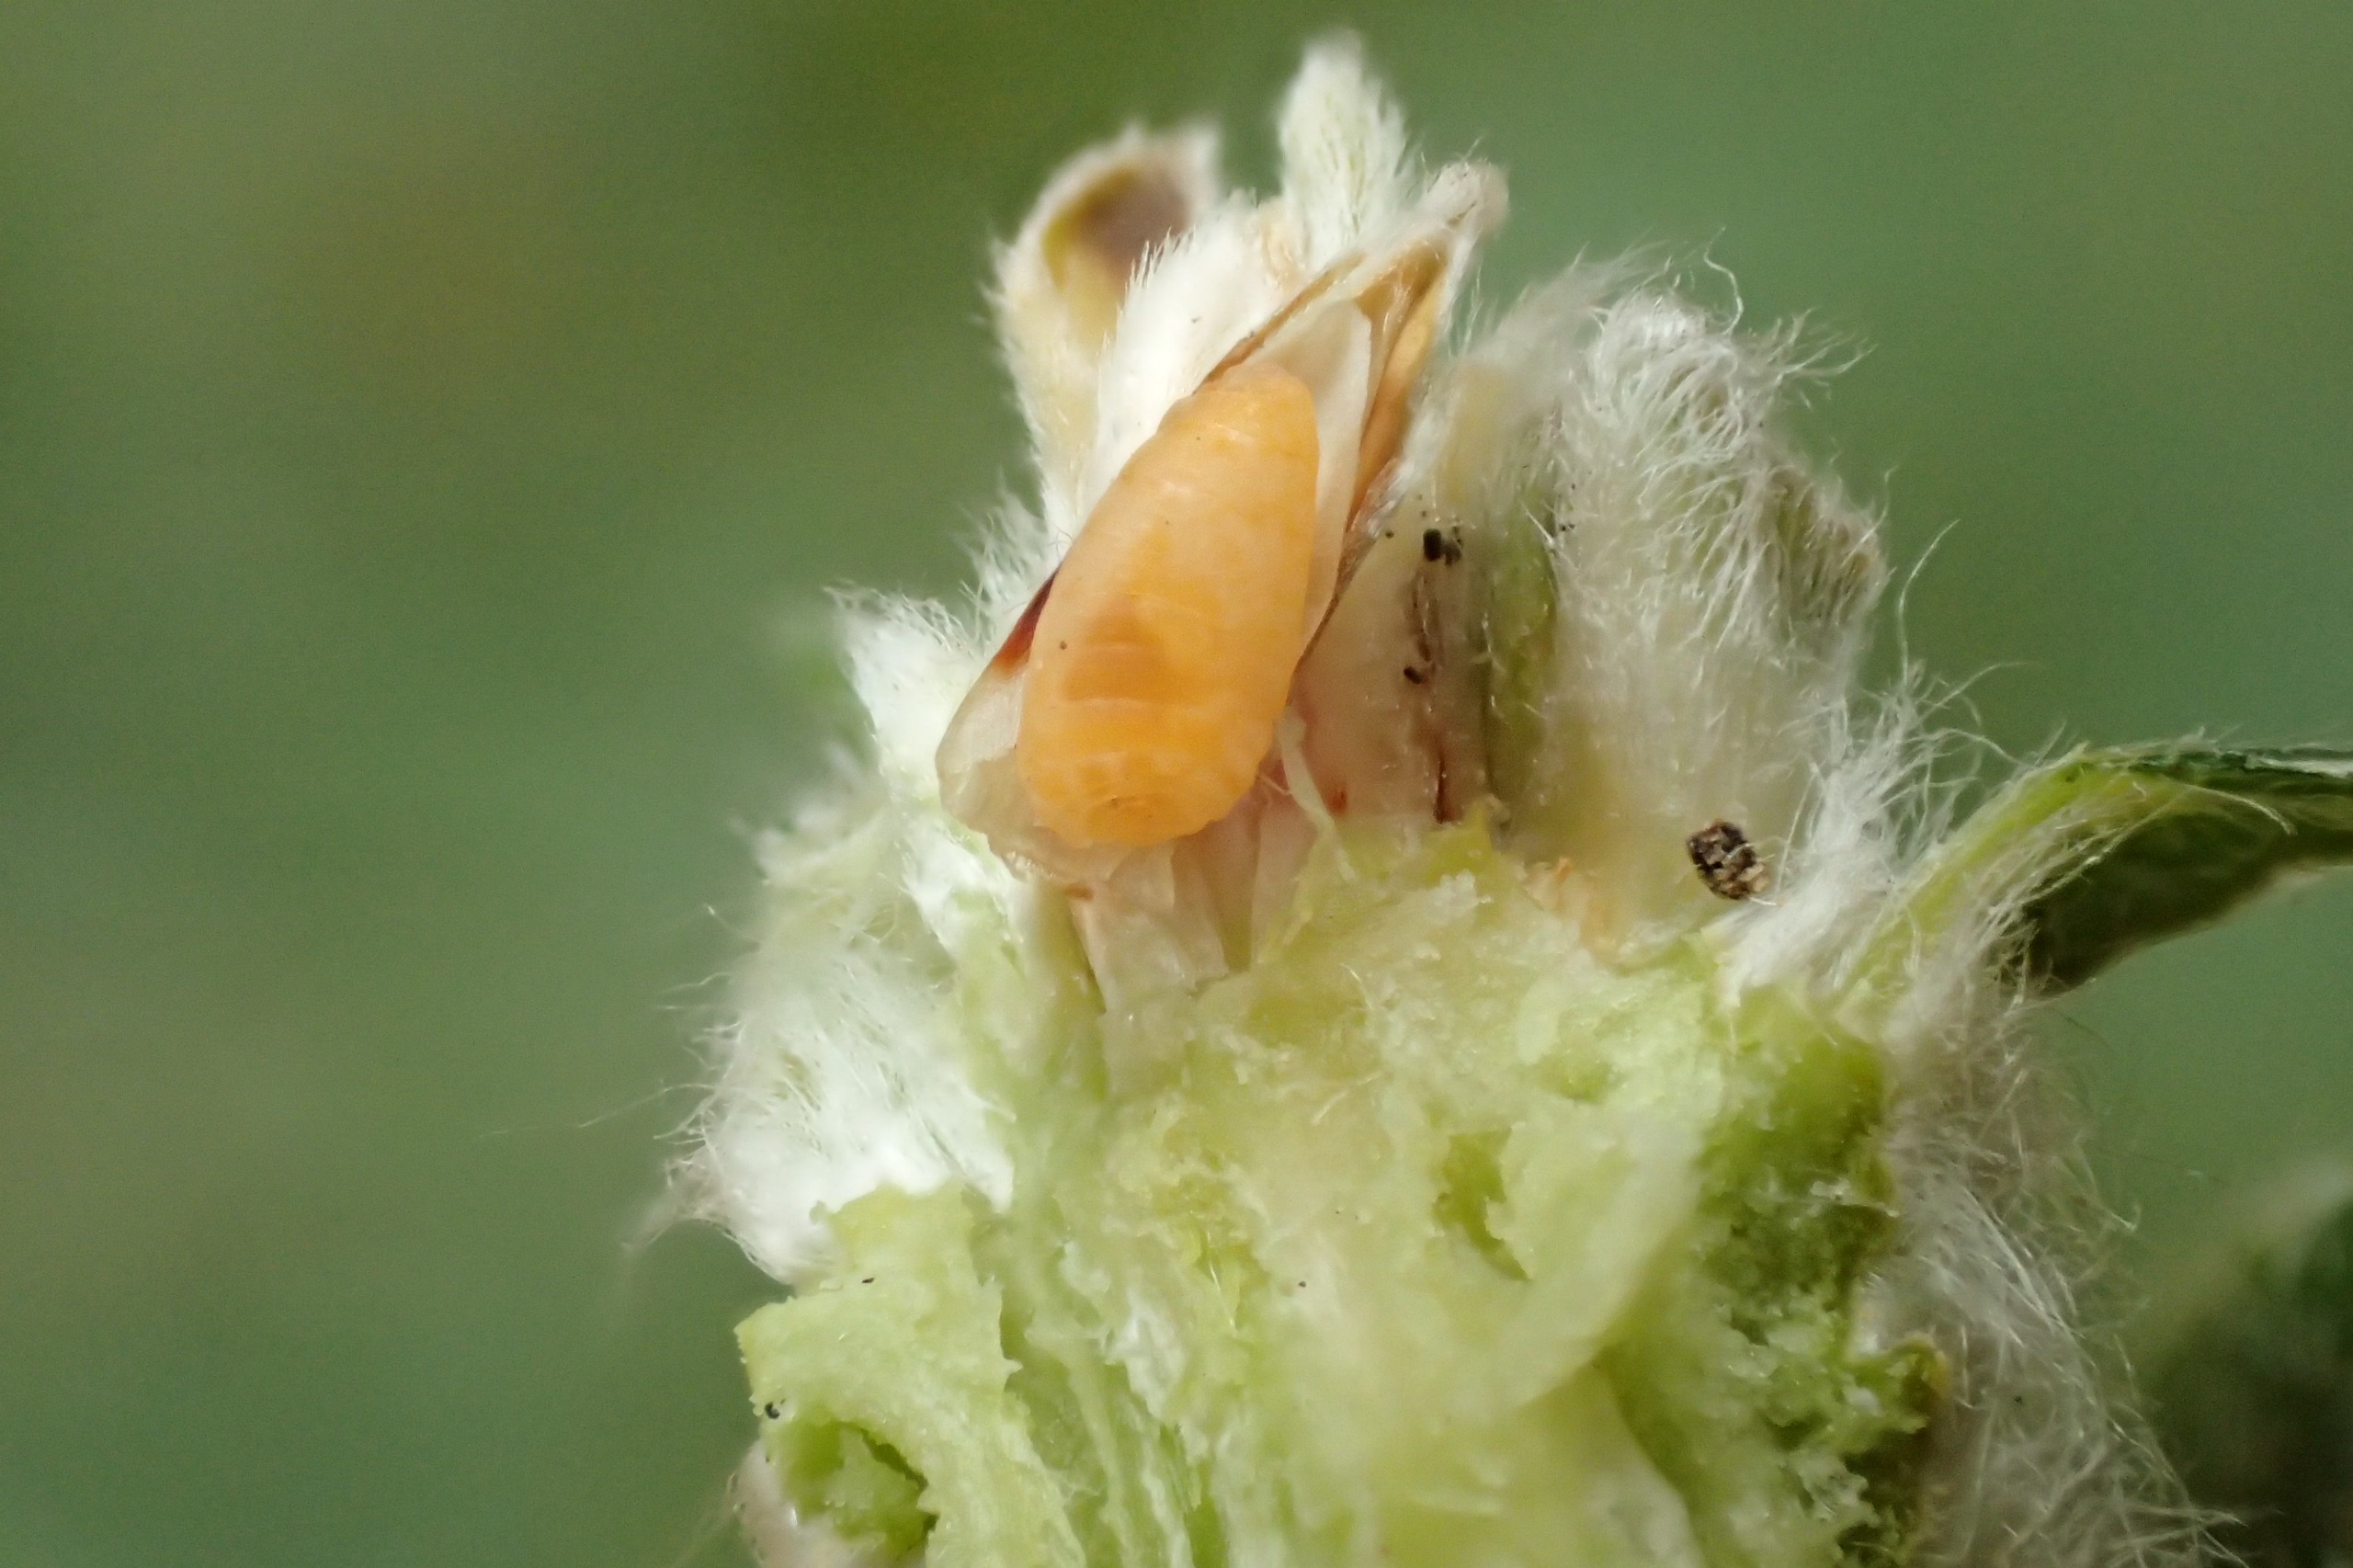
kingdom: Animalia
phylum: Arthropoda
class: Insecta
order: Diptera
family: Cecidomyiidae
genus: Rabdophaga
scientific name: Rabdophaga rosaria
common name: Pilerosetgalmyg
